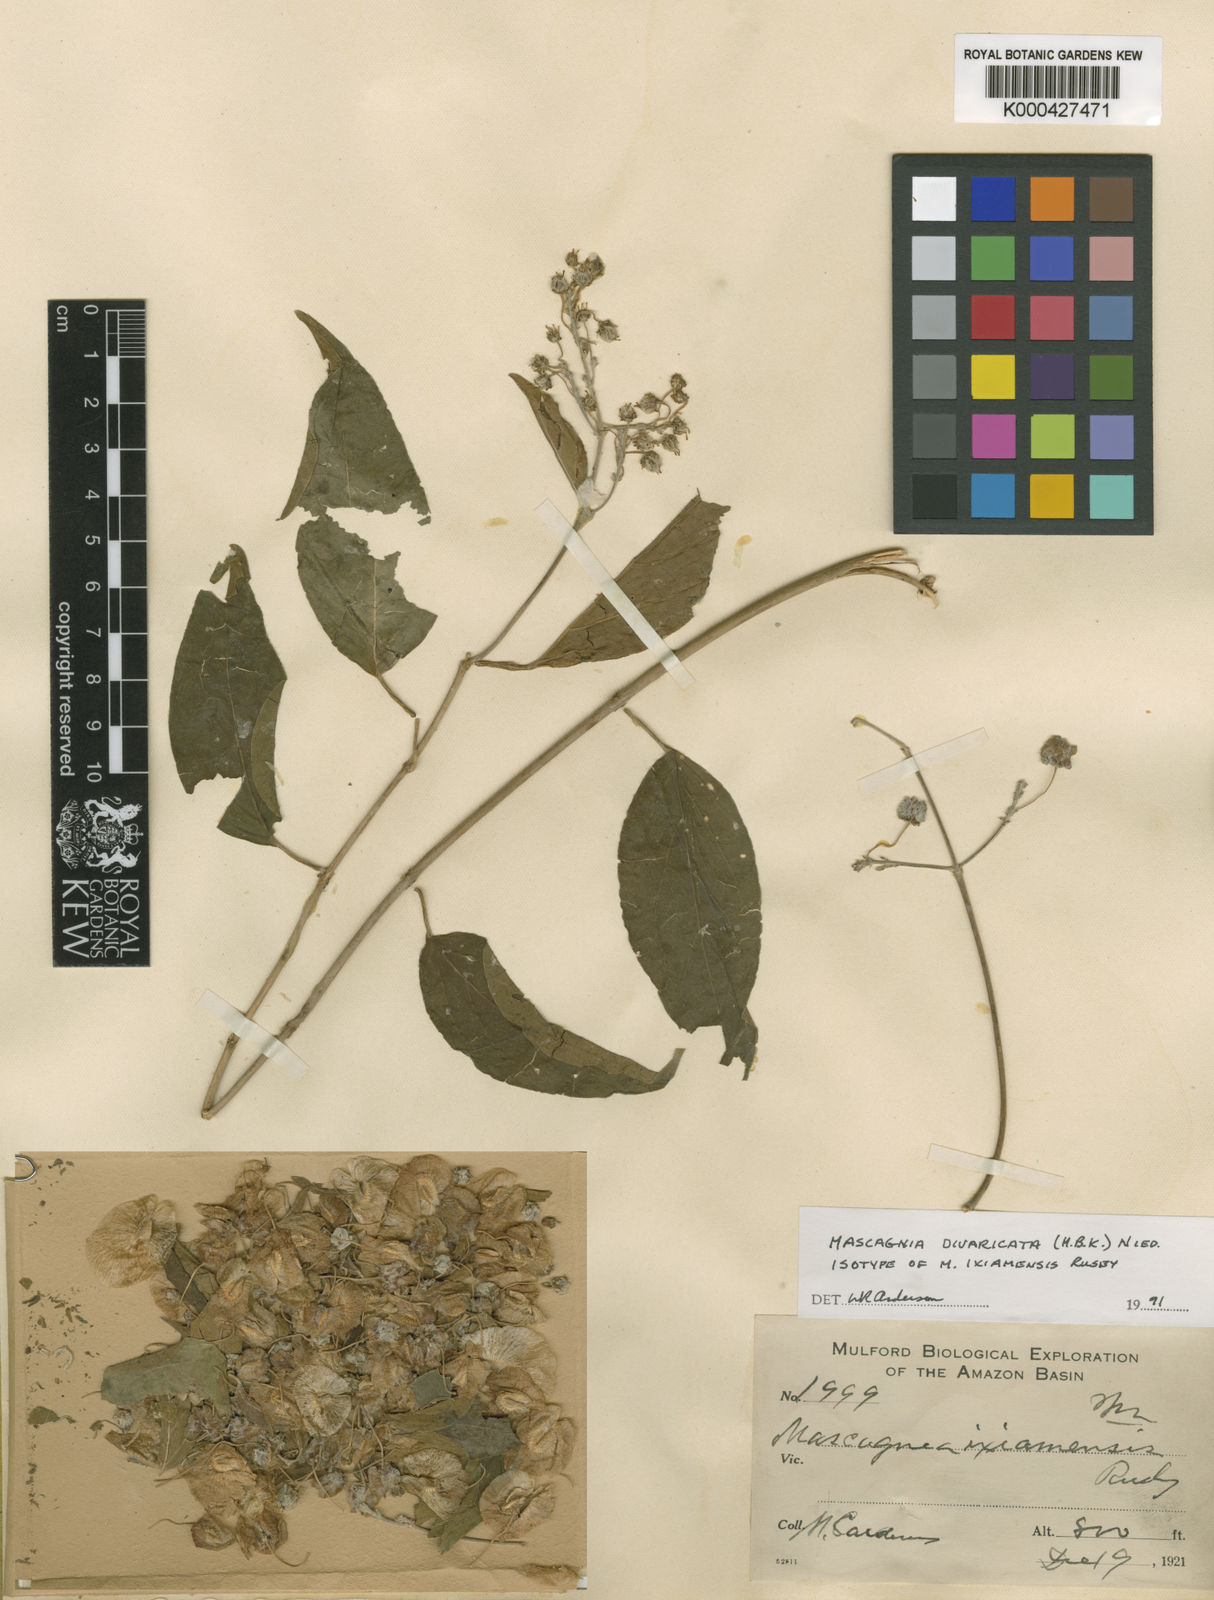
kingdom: Plantae
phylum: Tracheophyta
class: Magnoliopsida
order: Malpighiales
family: Malpighiaceae
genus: Mascagnia
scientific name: Mascagnia divaricata
